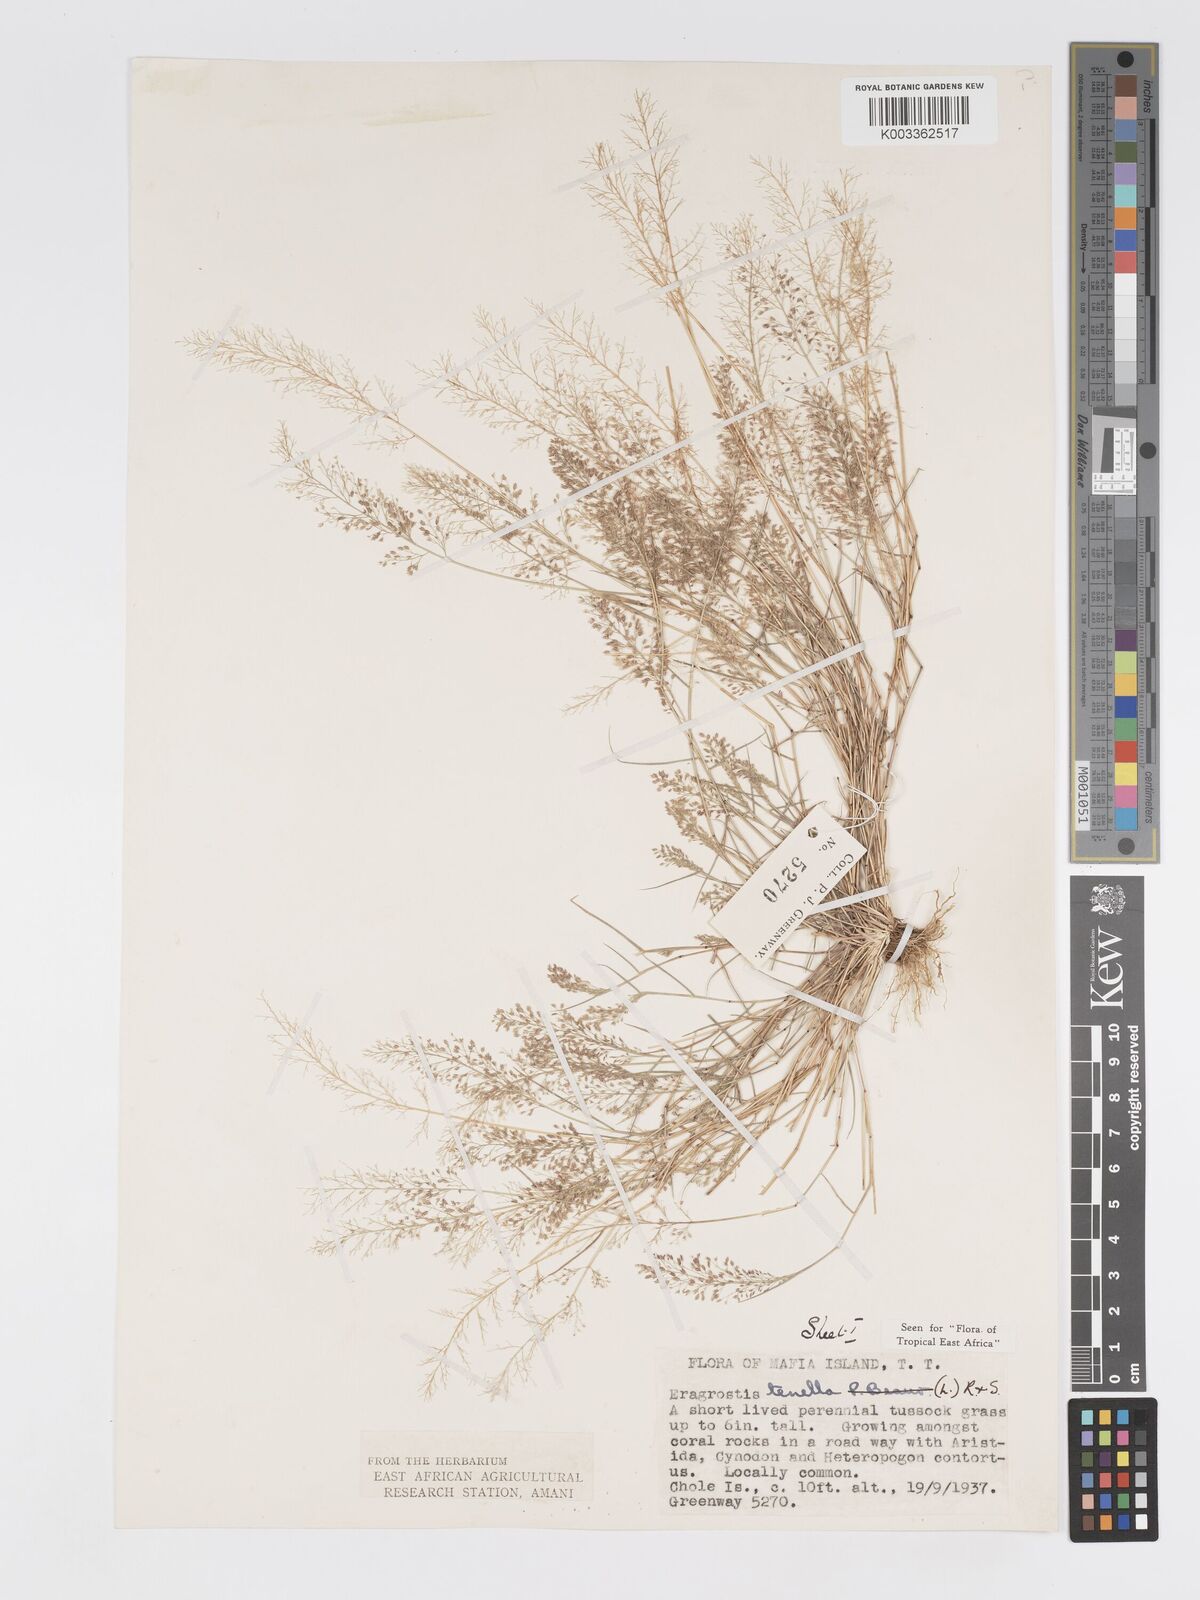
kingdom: Plantae
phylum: Tracheophyta
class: Liliopsida
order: Poales
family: Poaceae
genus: Eragrostis
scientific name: Eragrostis tenella
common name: Japanese lovegrass
